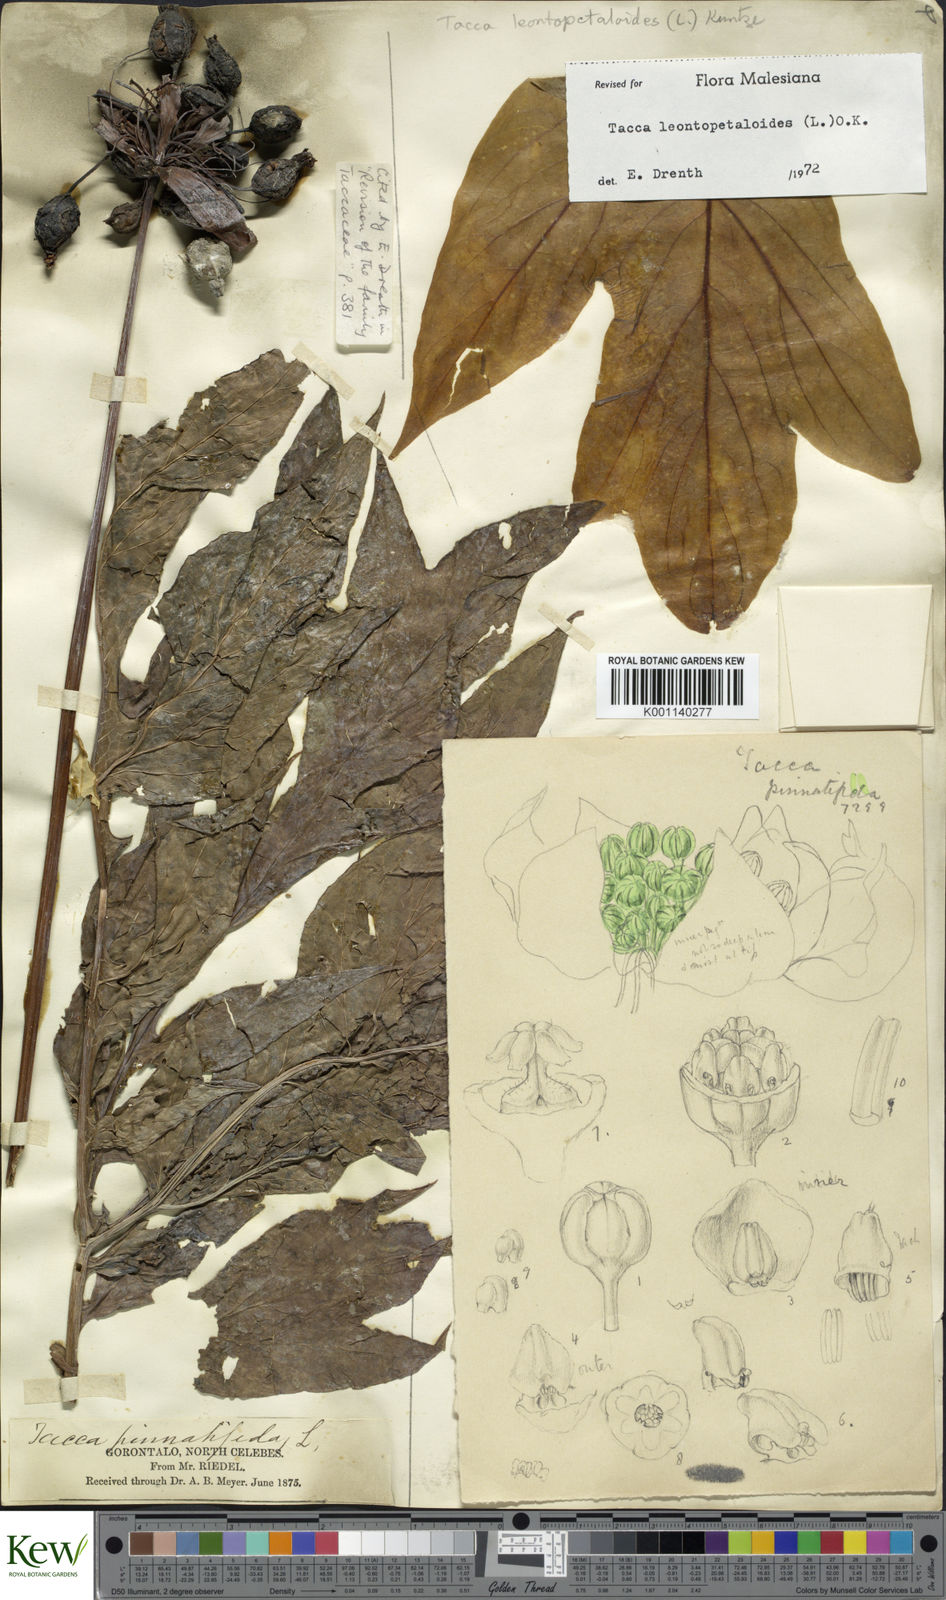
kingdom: Plantae
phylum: Tracheophyta
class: Liliopsida
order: Dioscoreales
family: Dioscoreaceae
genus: Tacca
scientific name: Tacca leontopetaloides
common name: Arrowroot
